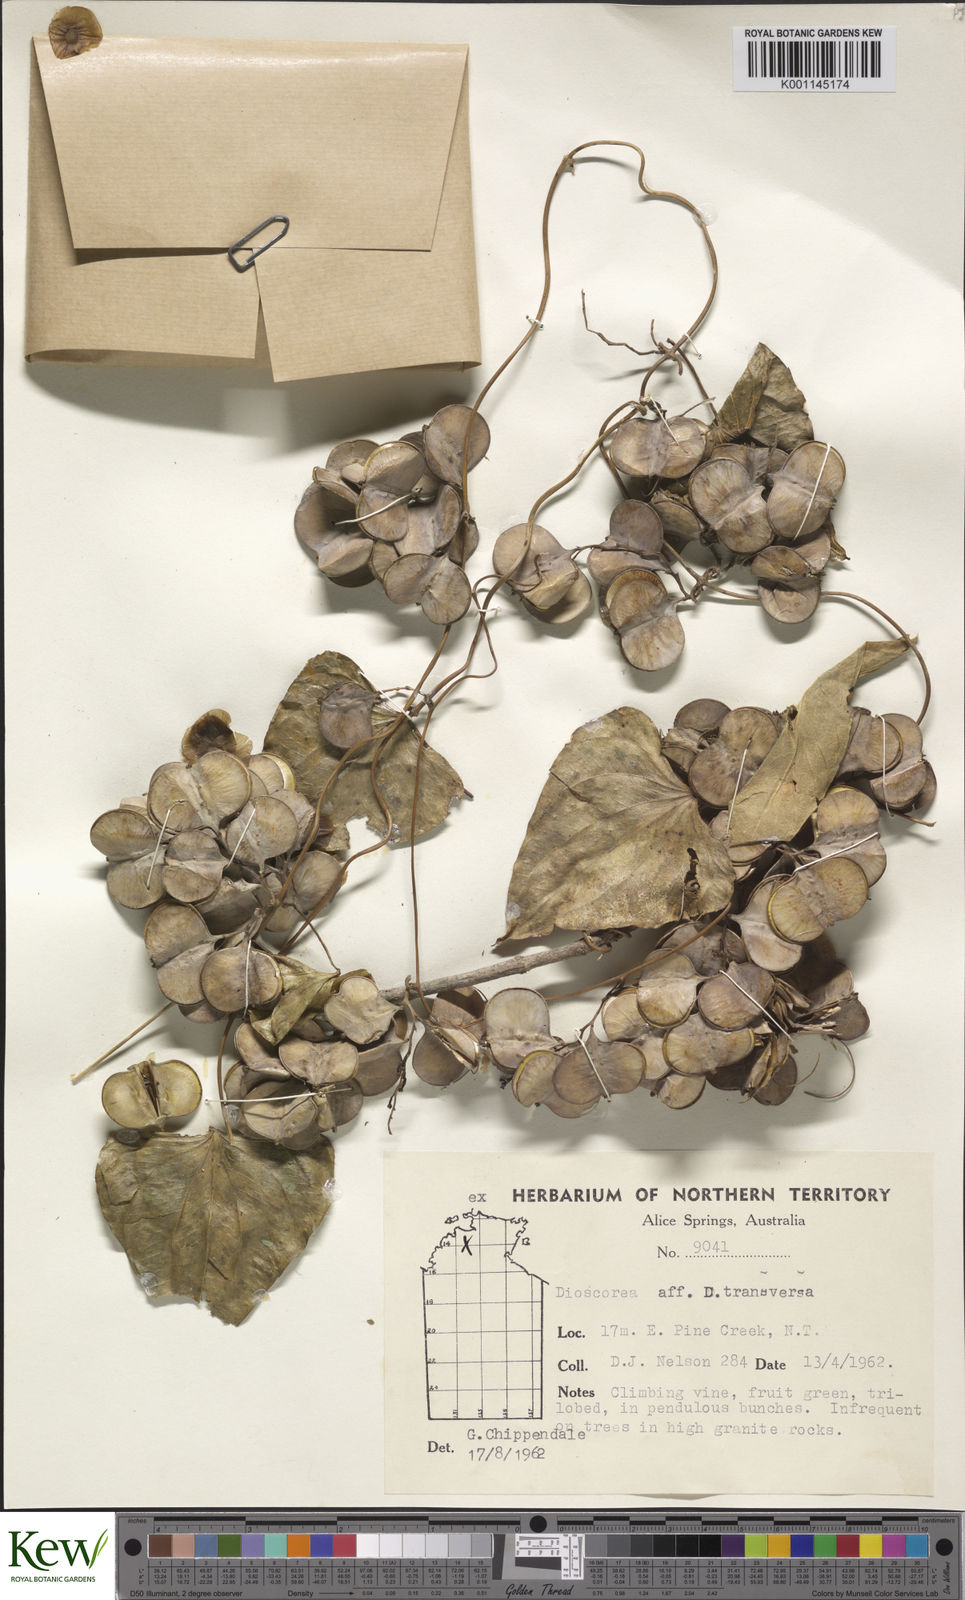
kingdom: Plantae
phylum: Tracheophyta
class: Liliopsida
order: Dioscoreales
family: Dioscoreaceae
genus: Dioscorea
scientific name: Dioscorea transversa
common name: Long yam
